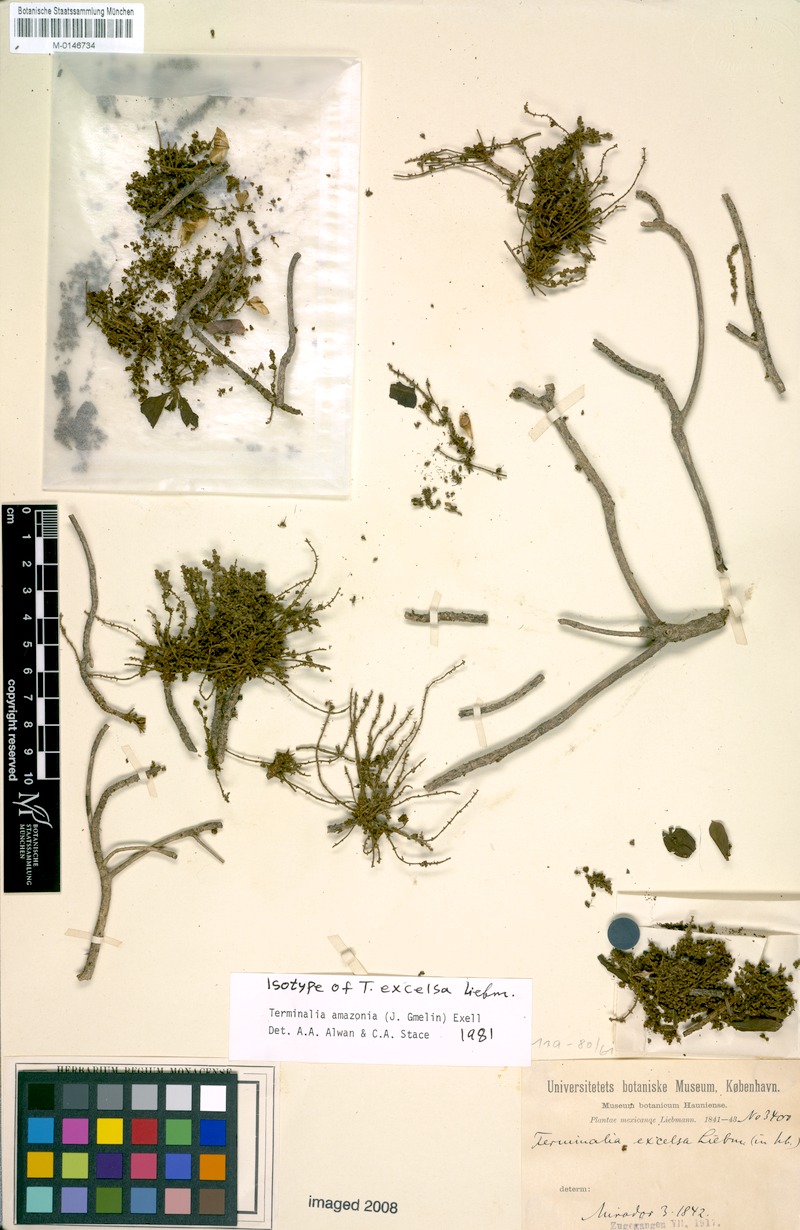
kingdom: Plantae
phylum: Tracheophyta
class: Magnoliopsida
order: Myrtales
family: Combretaceae
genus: Terminalia
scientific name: Terminalia amazonica
